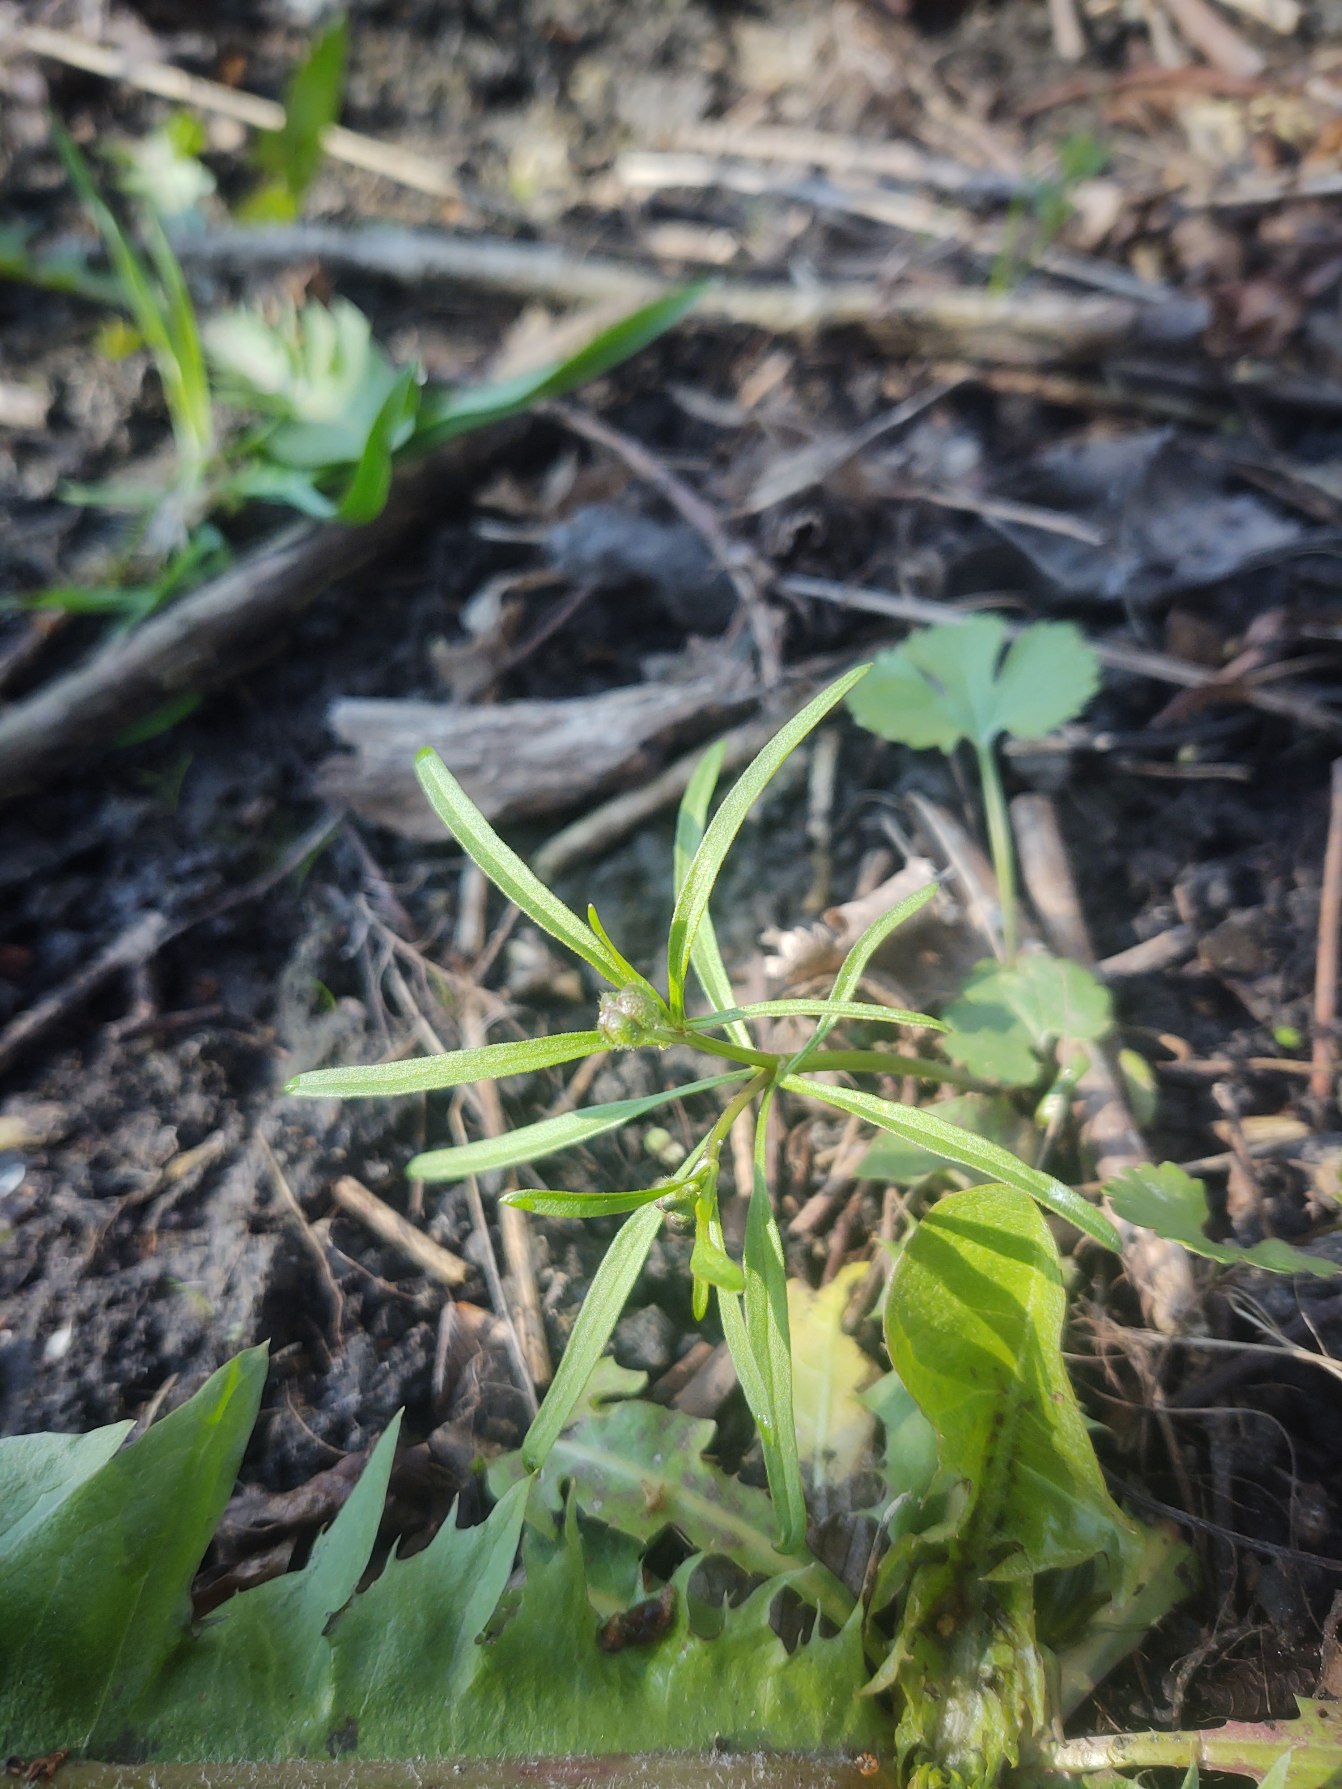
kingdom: Plantae
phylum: Tracheophyta
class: Magnoliopsida
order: Ranunculales
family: Ranunculaceae
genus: Ranunculus
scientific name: Ranunculus auricomus
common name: Nyrebladet ranunkel
